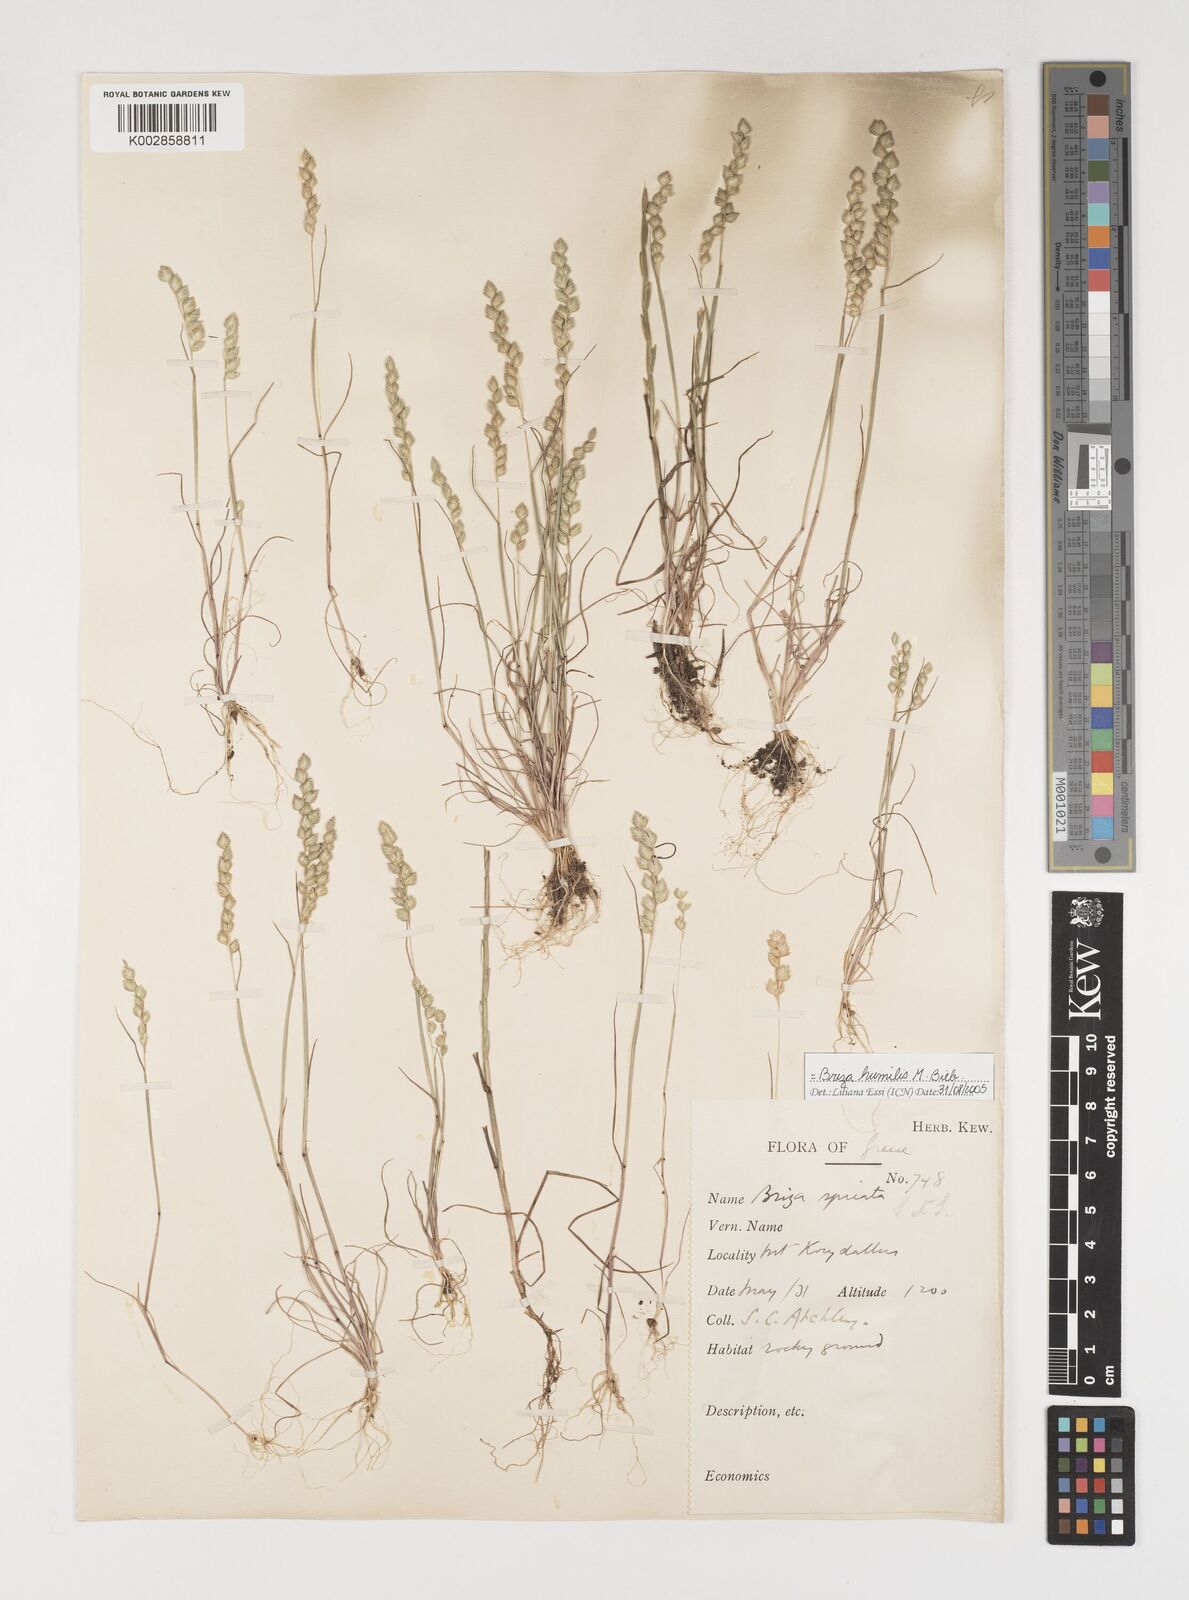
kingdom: Plantae
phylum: Tracheophyta
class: Liliopsida
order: Poales
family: Poaceae
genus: Briza
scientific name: Briza humilis
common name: Spiked quaking grass
